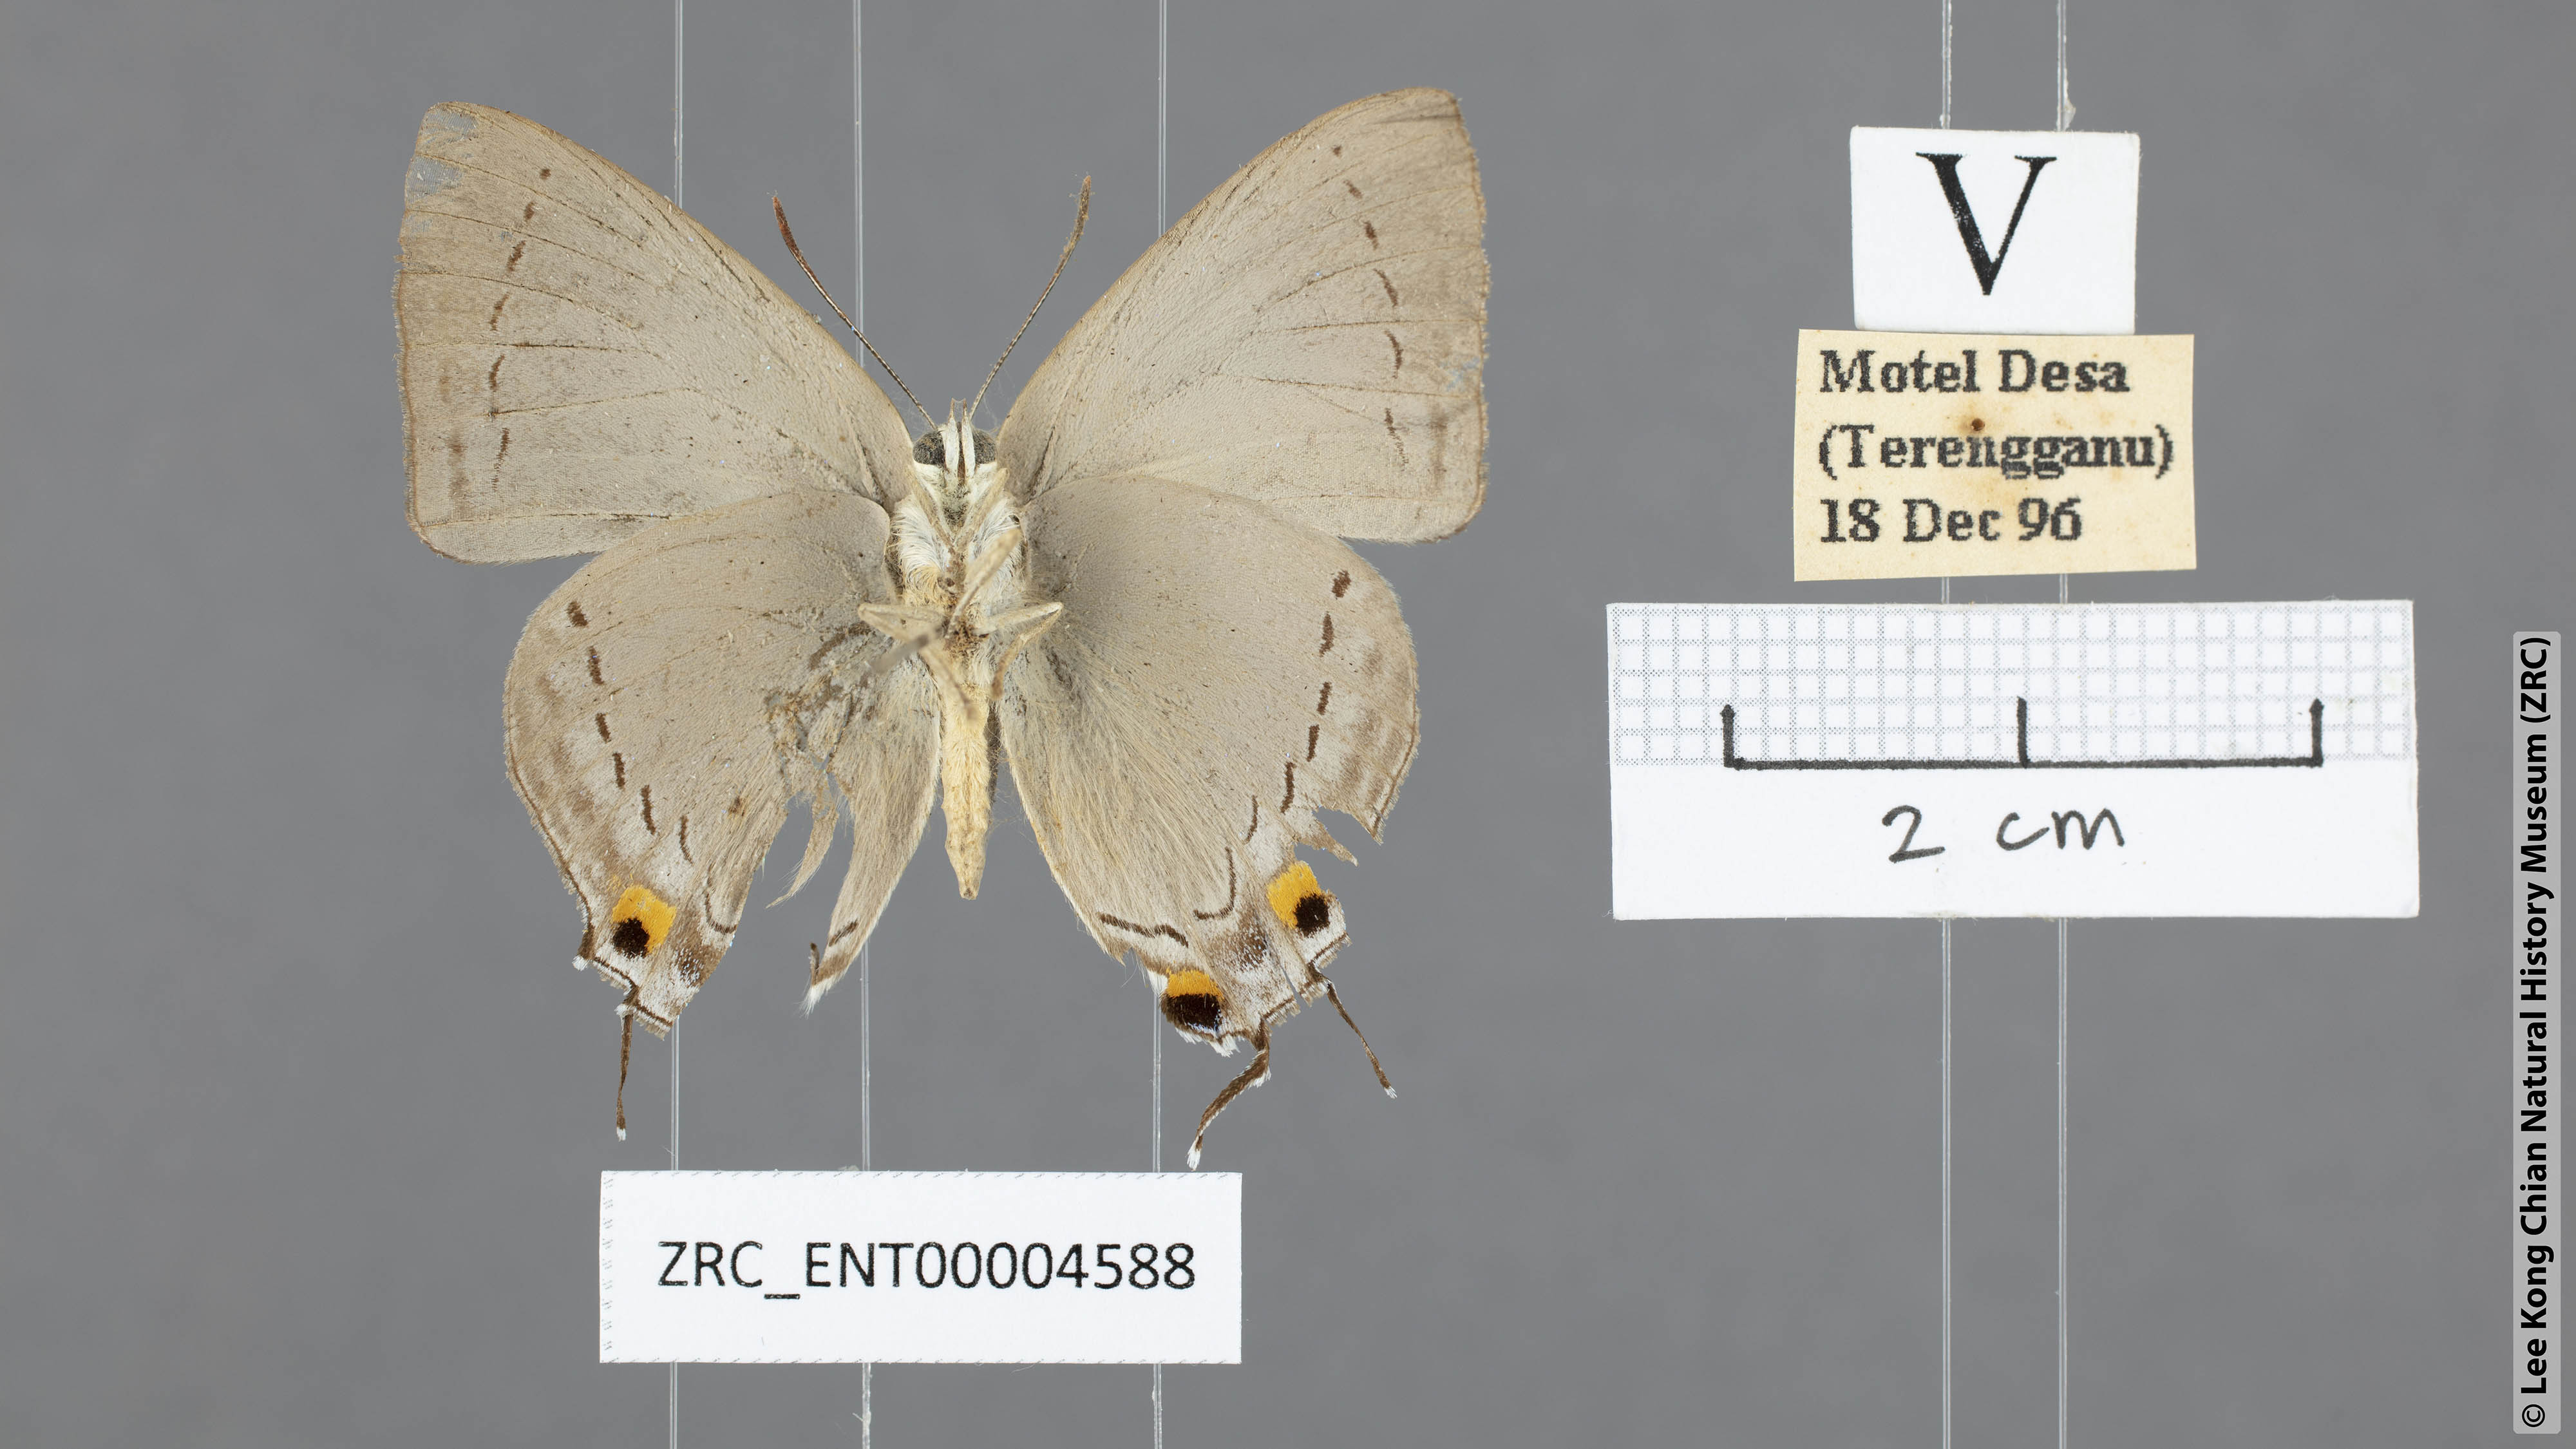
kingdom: Animalia
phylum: Arthropoda
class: Insecta
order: Lepidoptera
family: Lycaenidae
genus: Tajuria
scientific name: Tajuria cippus
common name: Peacock royal
